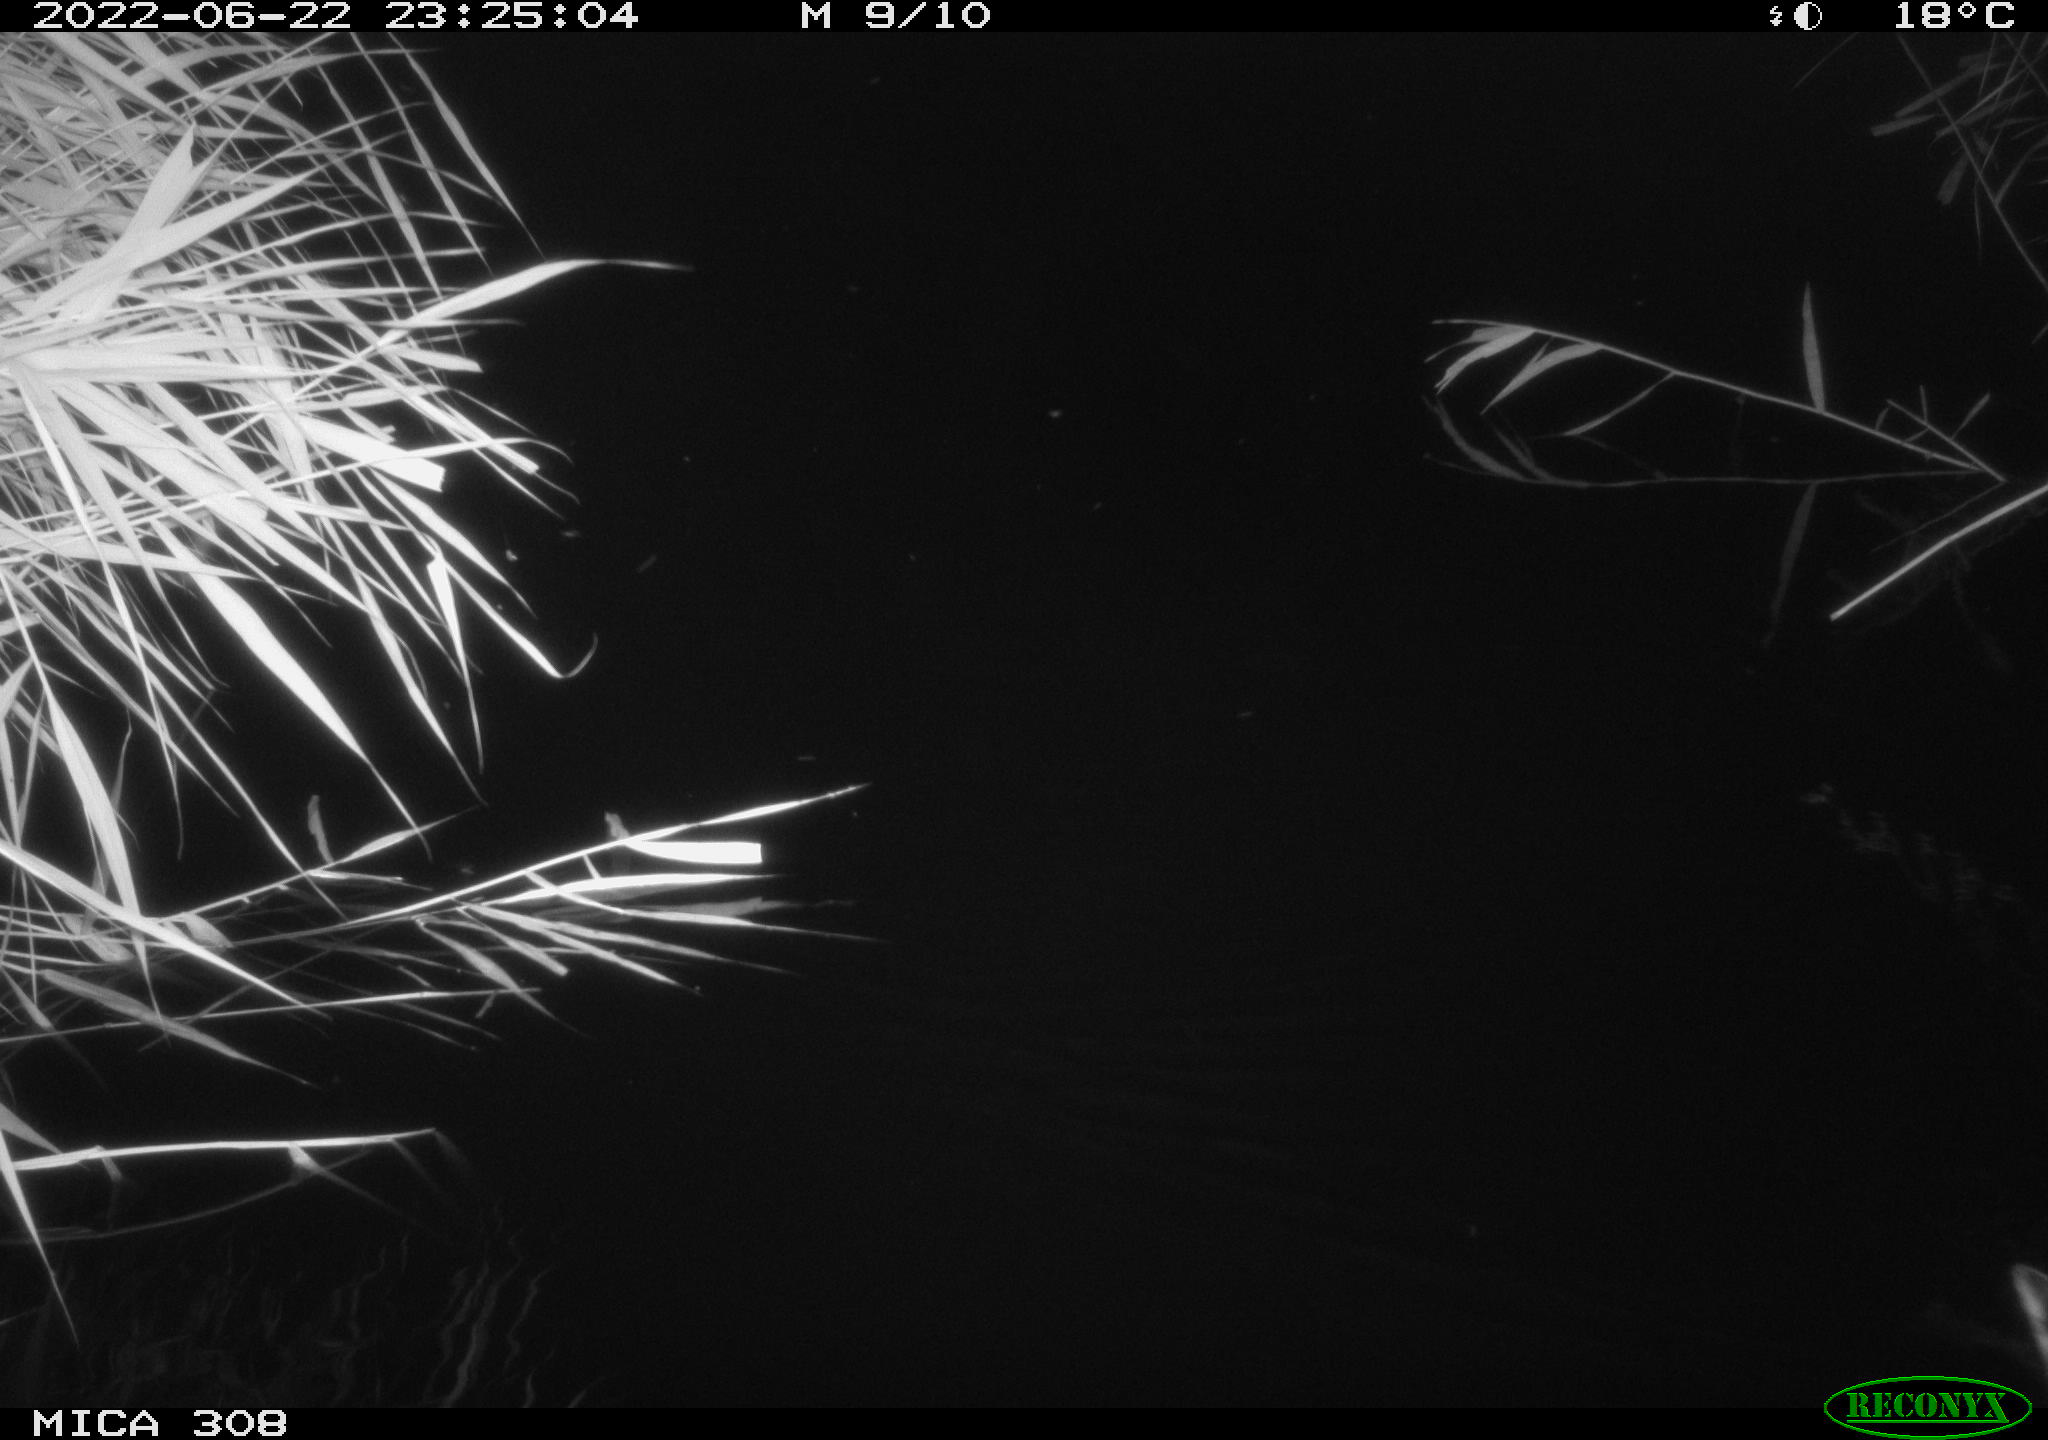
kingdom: Animalia
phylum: Chordata
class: Aves
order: Anseriformes
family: Anatidae
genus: Anas
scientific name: Anas platyrhynchos
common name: Mallard
